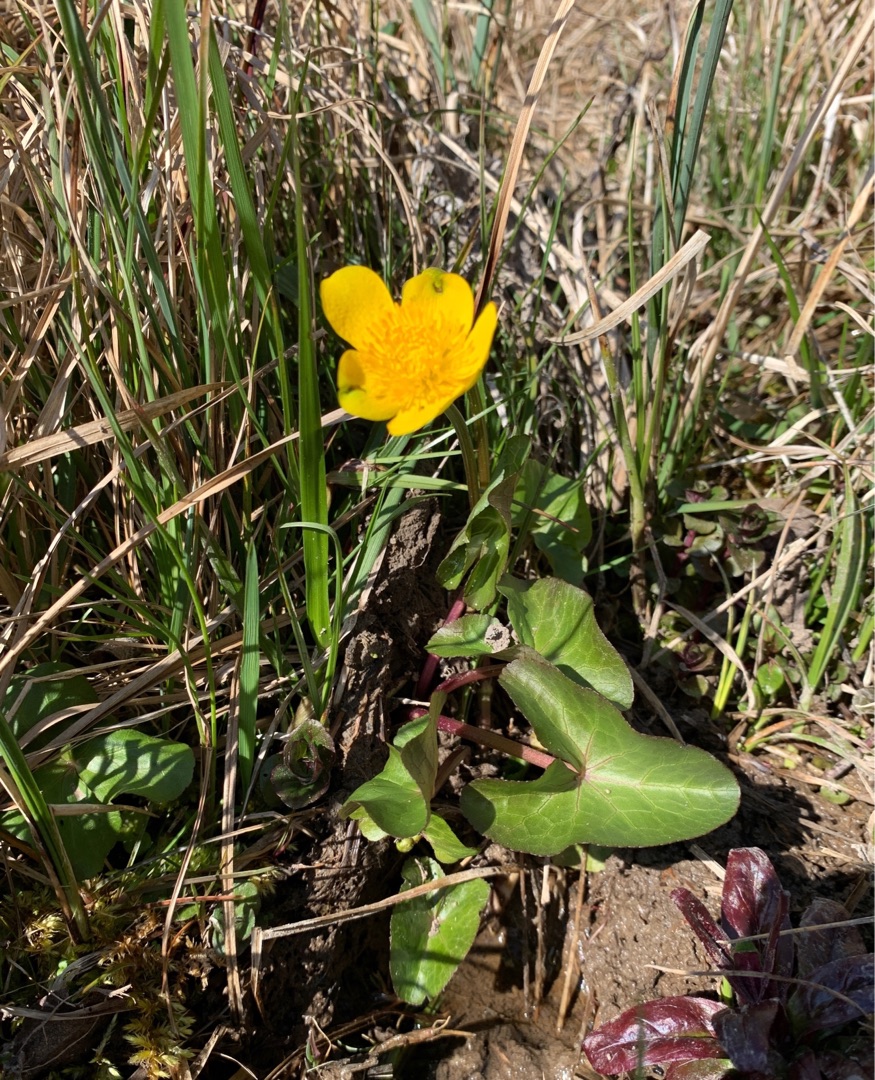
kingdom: Plantae
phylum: Tracheophyta
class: Magnoliopsida
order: Ranunculales
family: Ranunculaceae
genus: Caltha
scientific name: Caltha palustris
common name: Eng-kabbeleje
